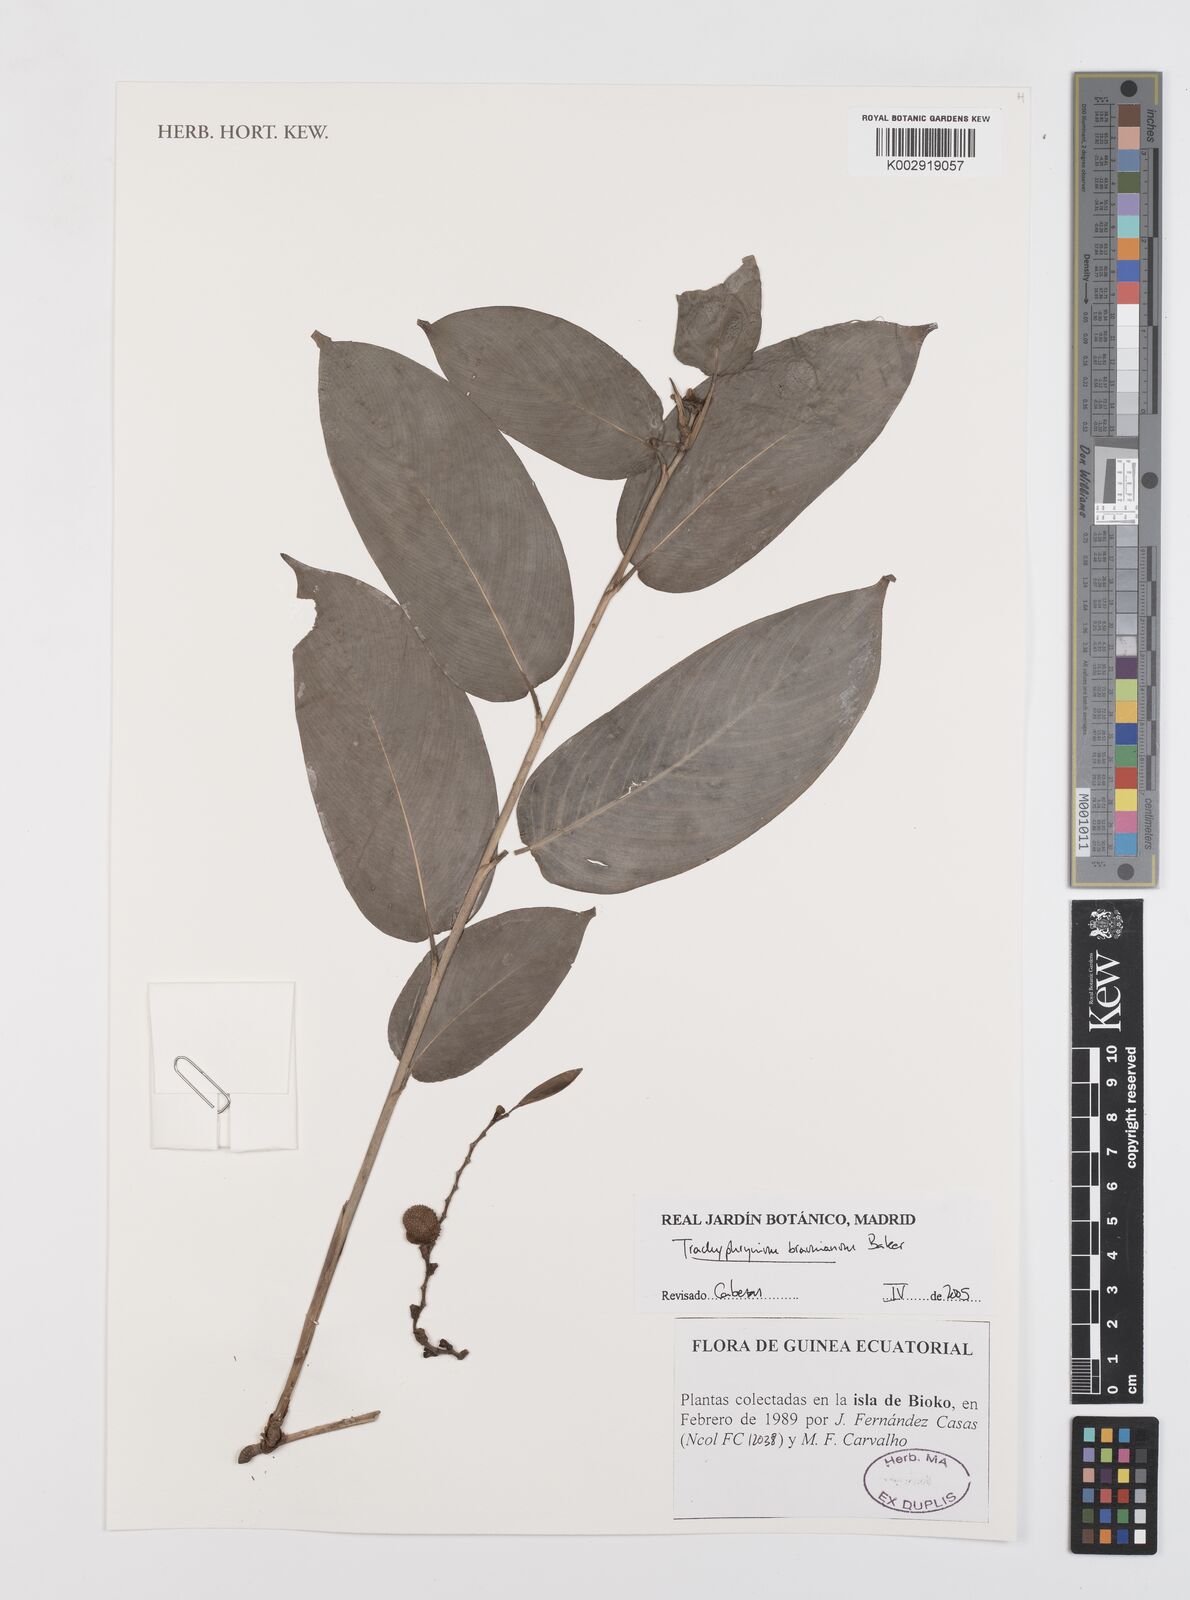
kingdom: Plantae
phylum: Tracheophyta
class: Liliopsida
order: Zingiberales
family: Marantaceae
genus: Trachyphrynium
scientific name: Trachyphrynium braunianum
